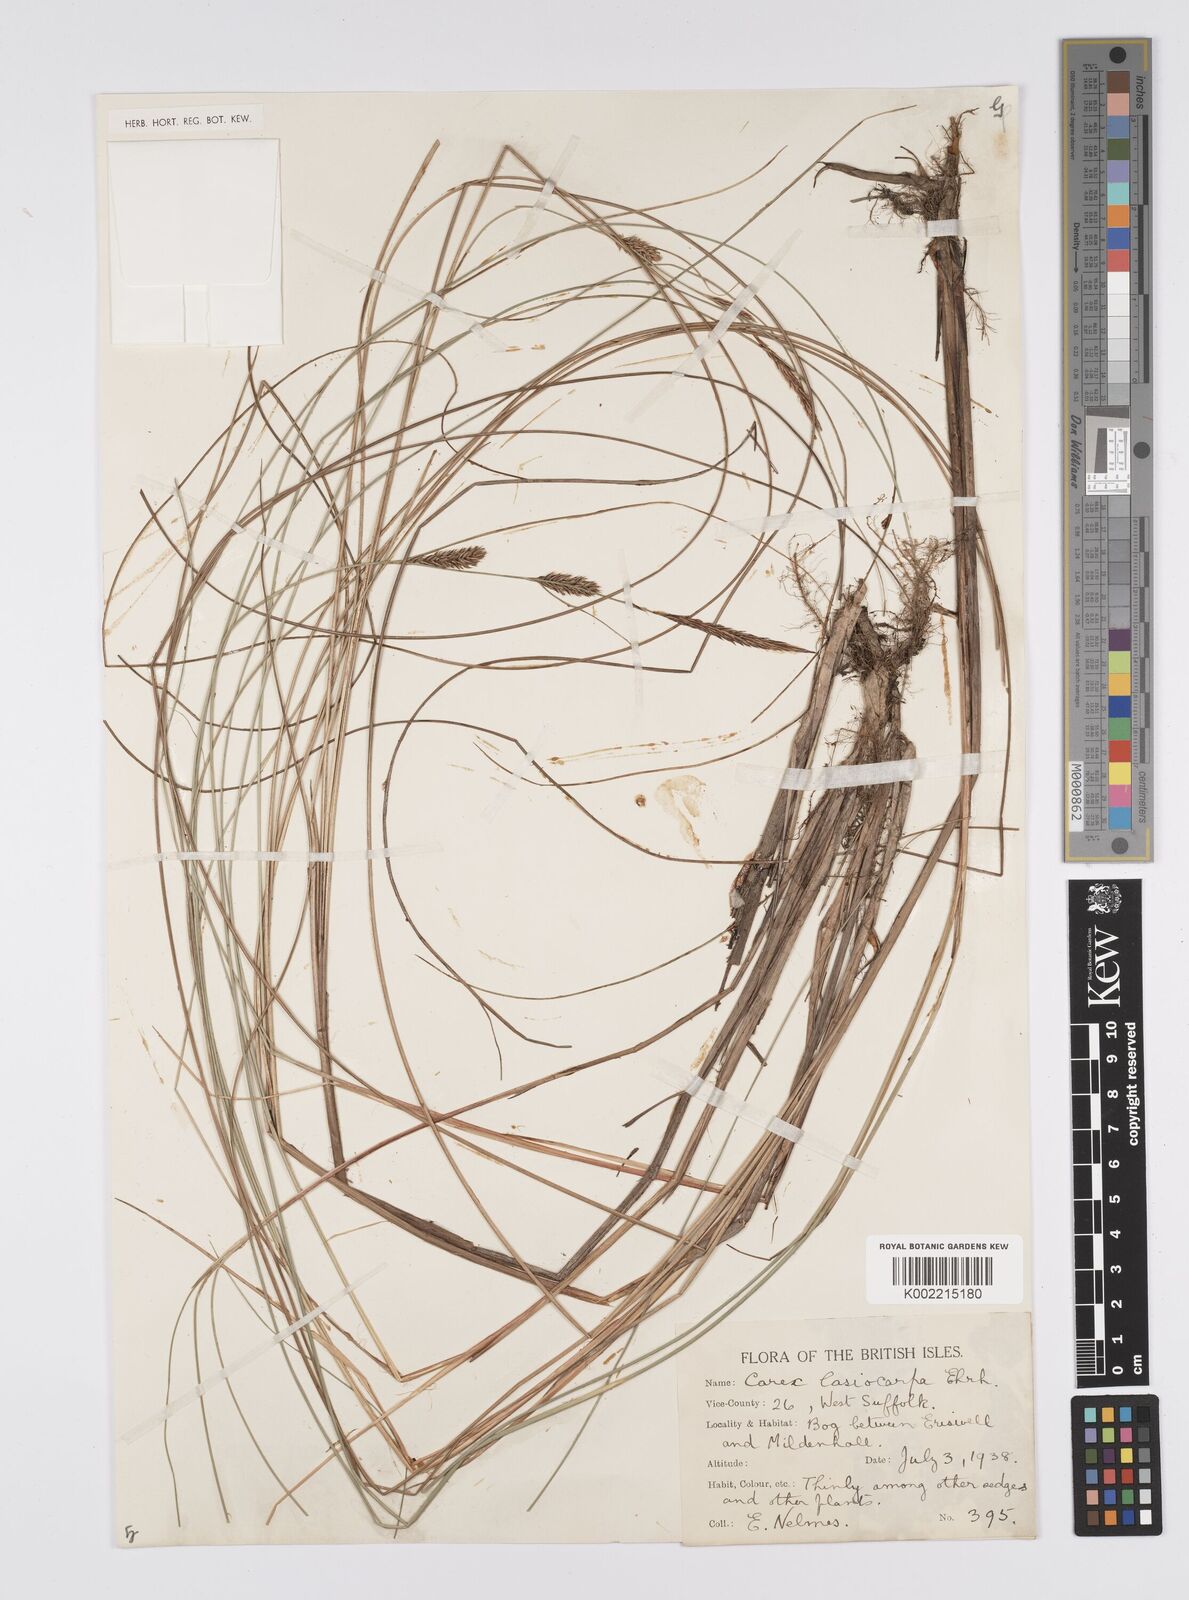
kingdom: Plantae
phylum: Tracheophyta
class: Liliopsida
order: Poales
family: Cyperaceae
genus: Carex
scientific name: Carex lasiocarpa
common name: Slender sedge
